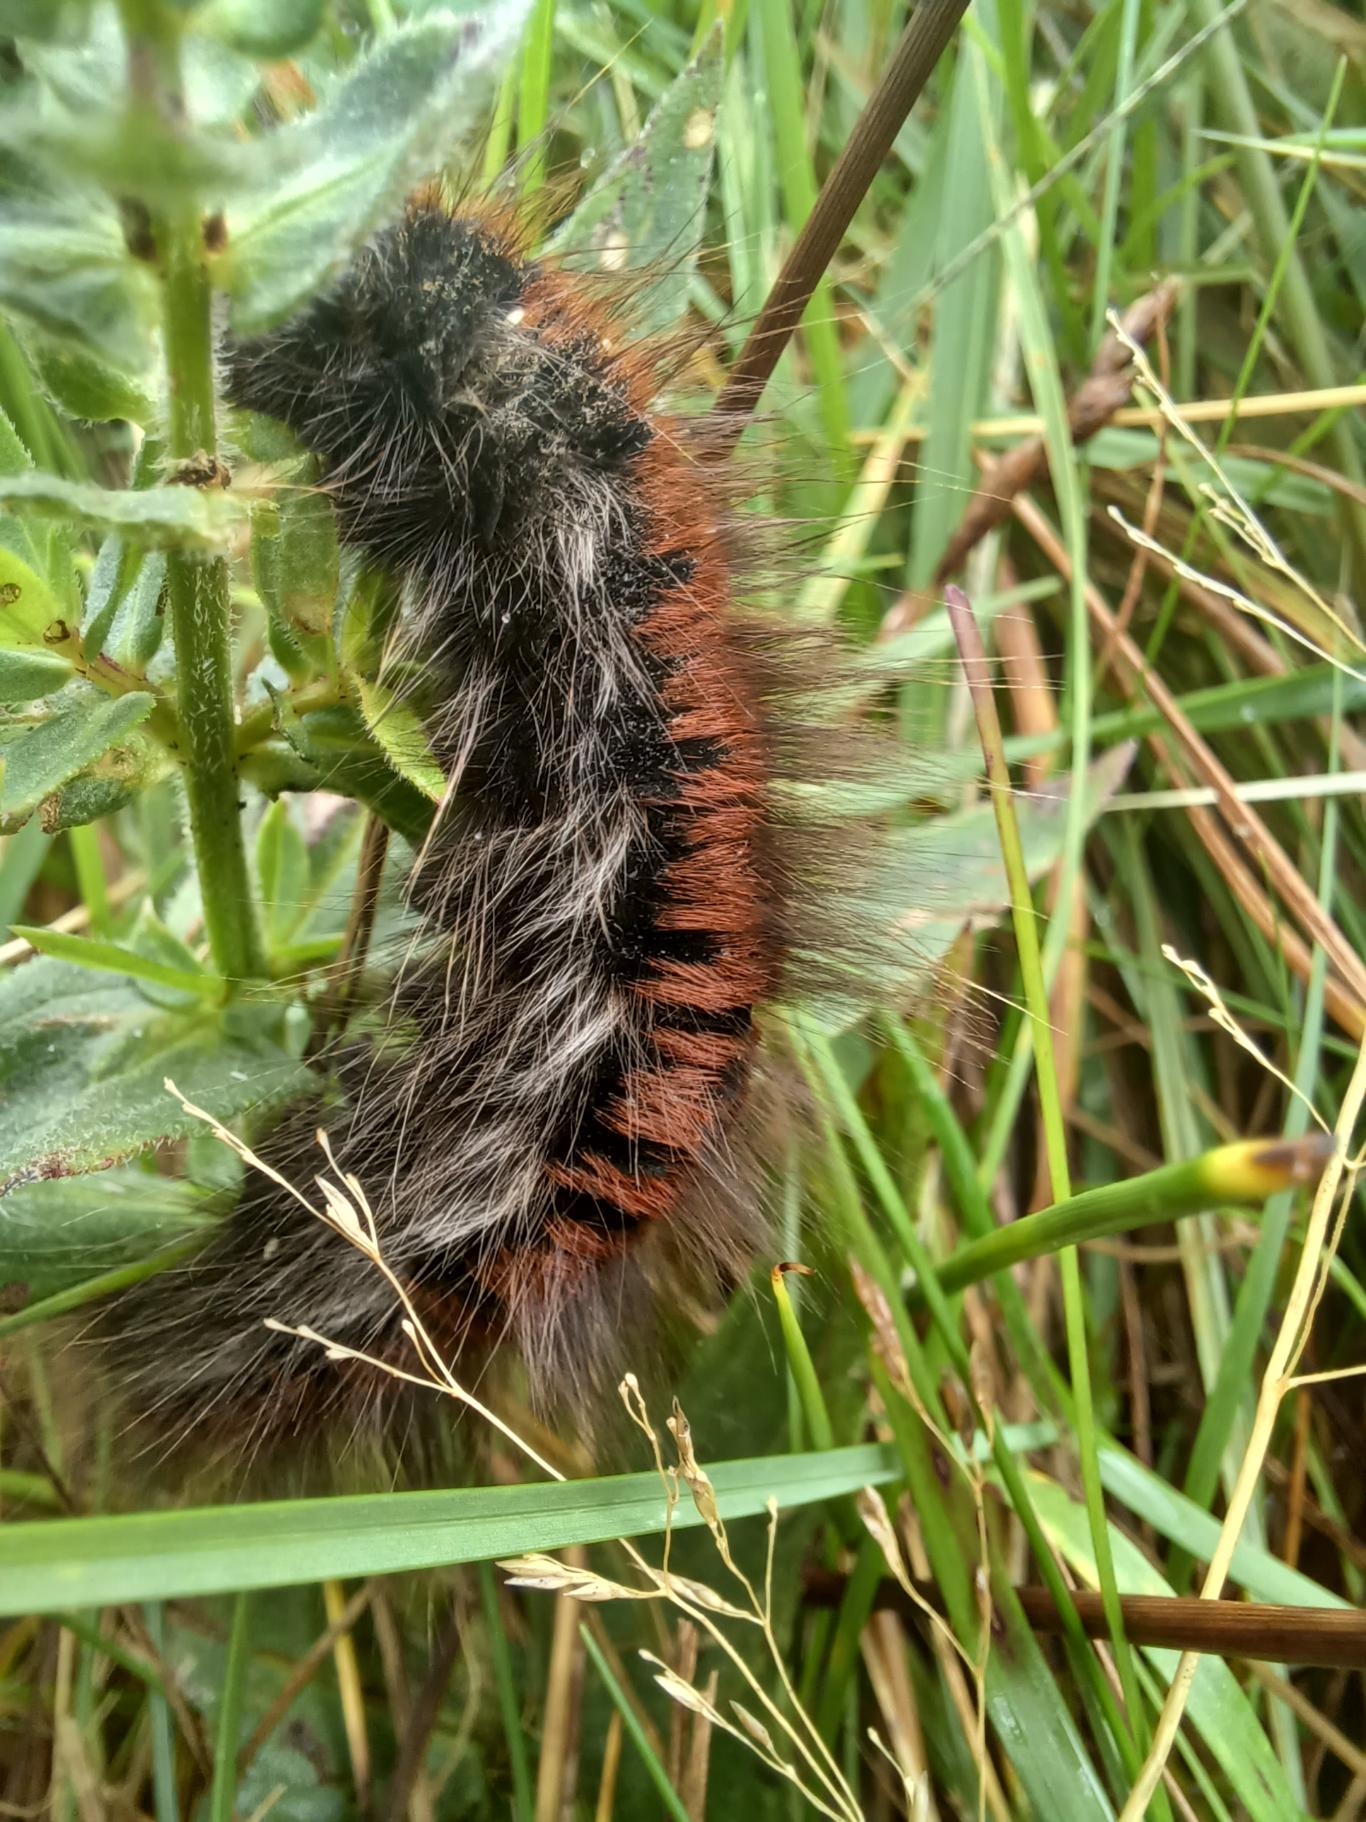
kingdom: Animalia
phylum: Arthropoda
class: Insecta
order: Lepidoptera
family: Lasiocampidae
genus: Macrothylacia
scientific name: Macrothylacia rubi
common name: Brombærspinder
